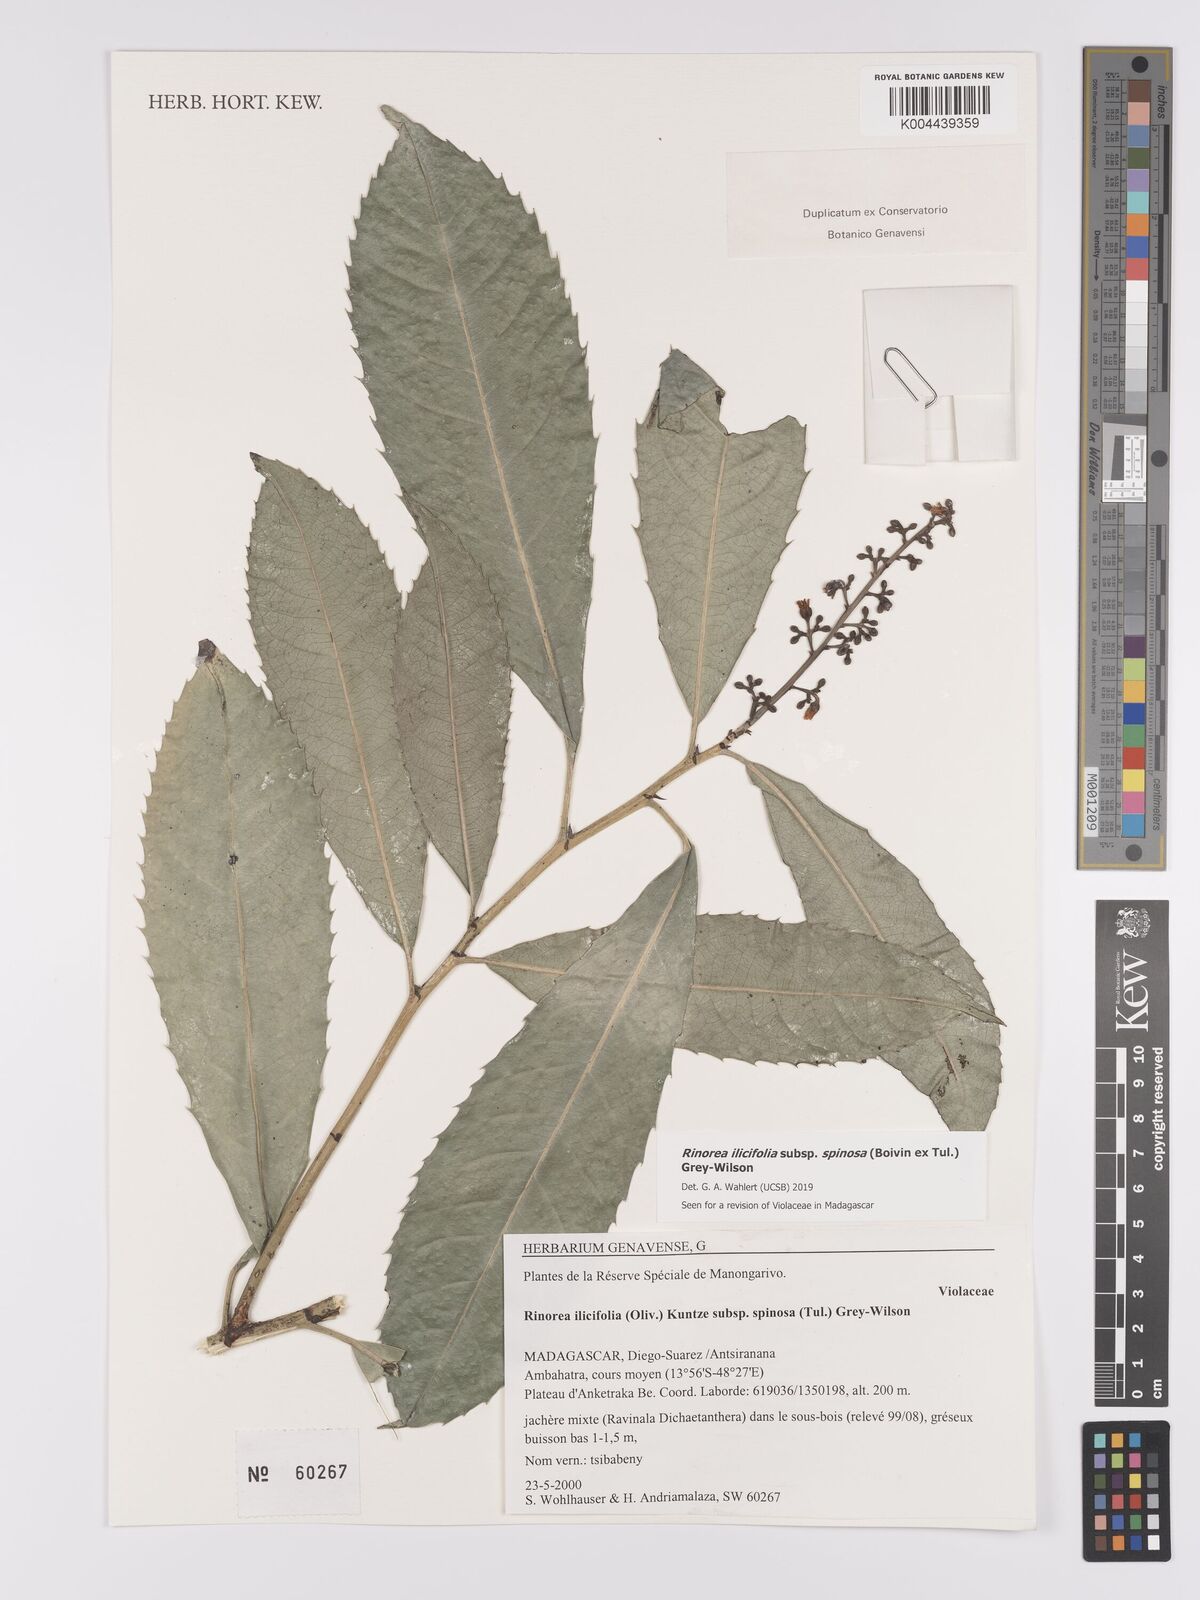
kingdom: Plantae
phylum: Tracheophyta
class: Magnoliopsida
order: Malpighiales
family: Violaceae
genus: Rinorea
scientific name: Rinorea spinosa
